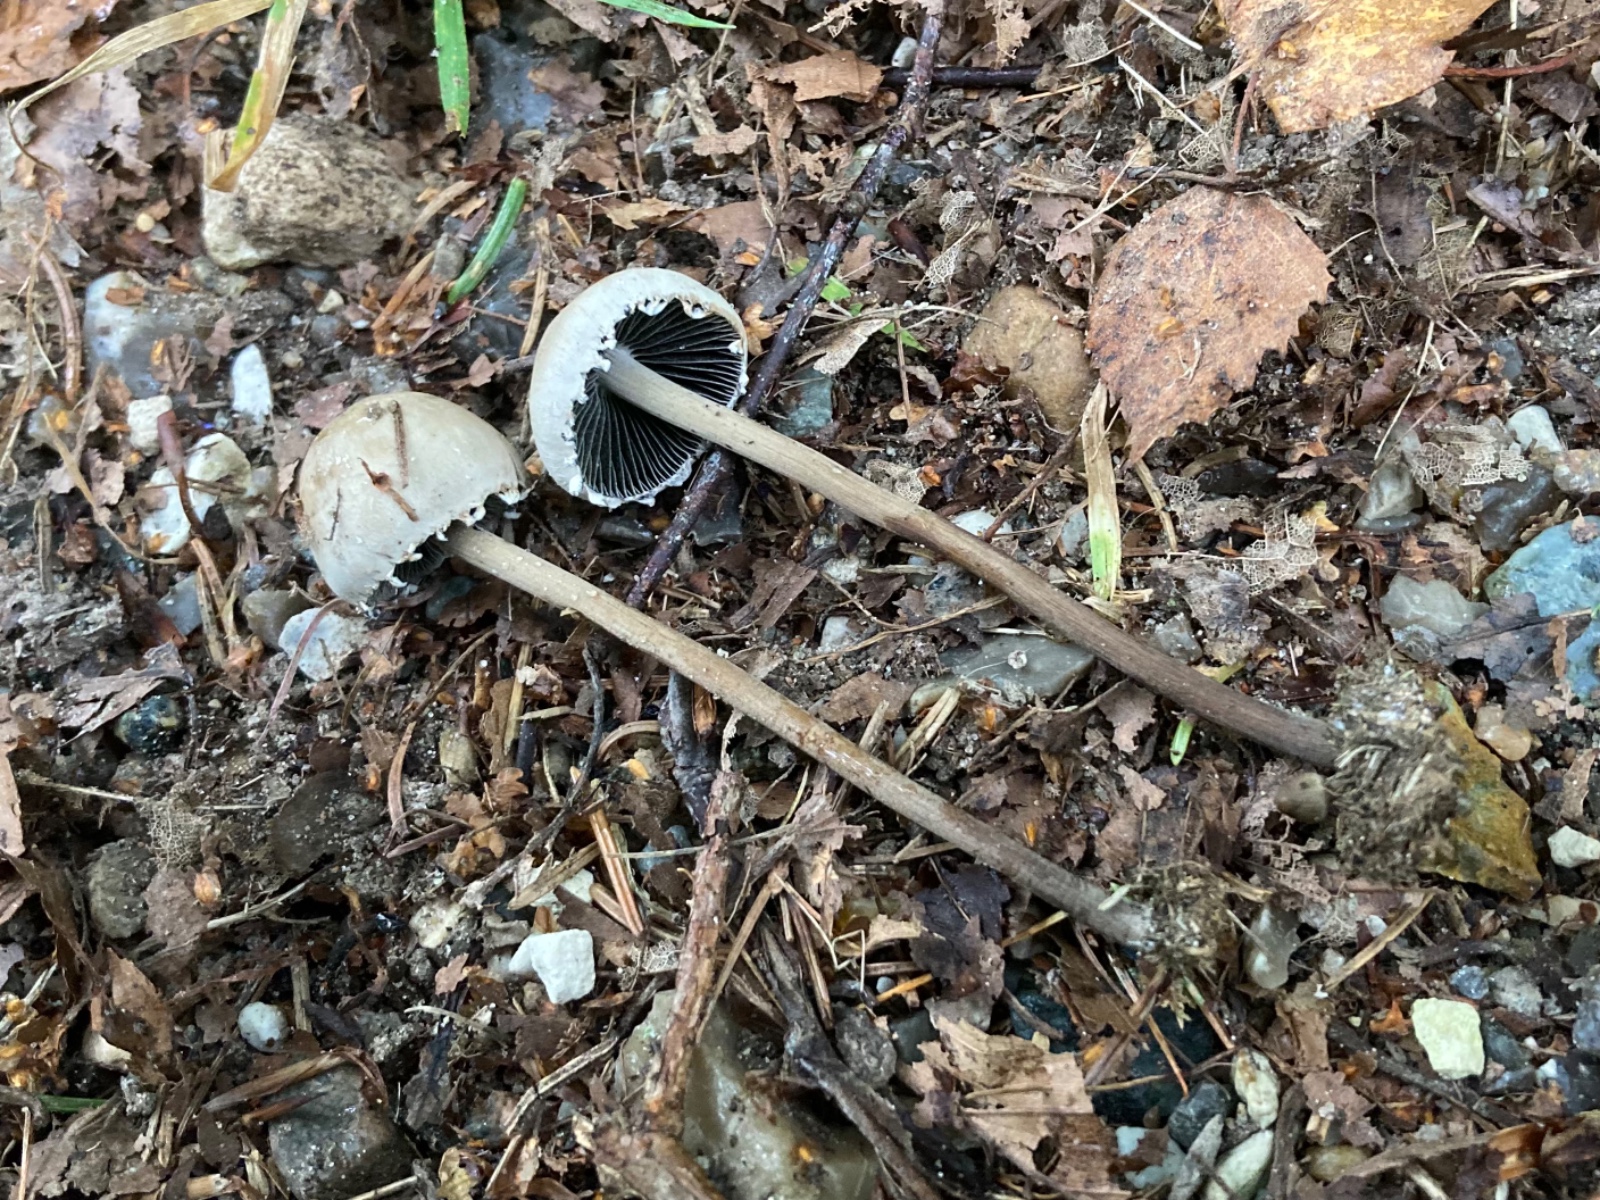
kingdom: Fungi
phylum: Basidiomycota
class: Agaricomycetes
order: Agaricales
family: Bolbitiaceae
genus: Panaeolus
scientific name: Panaeolus papilionaceus
